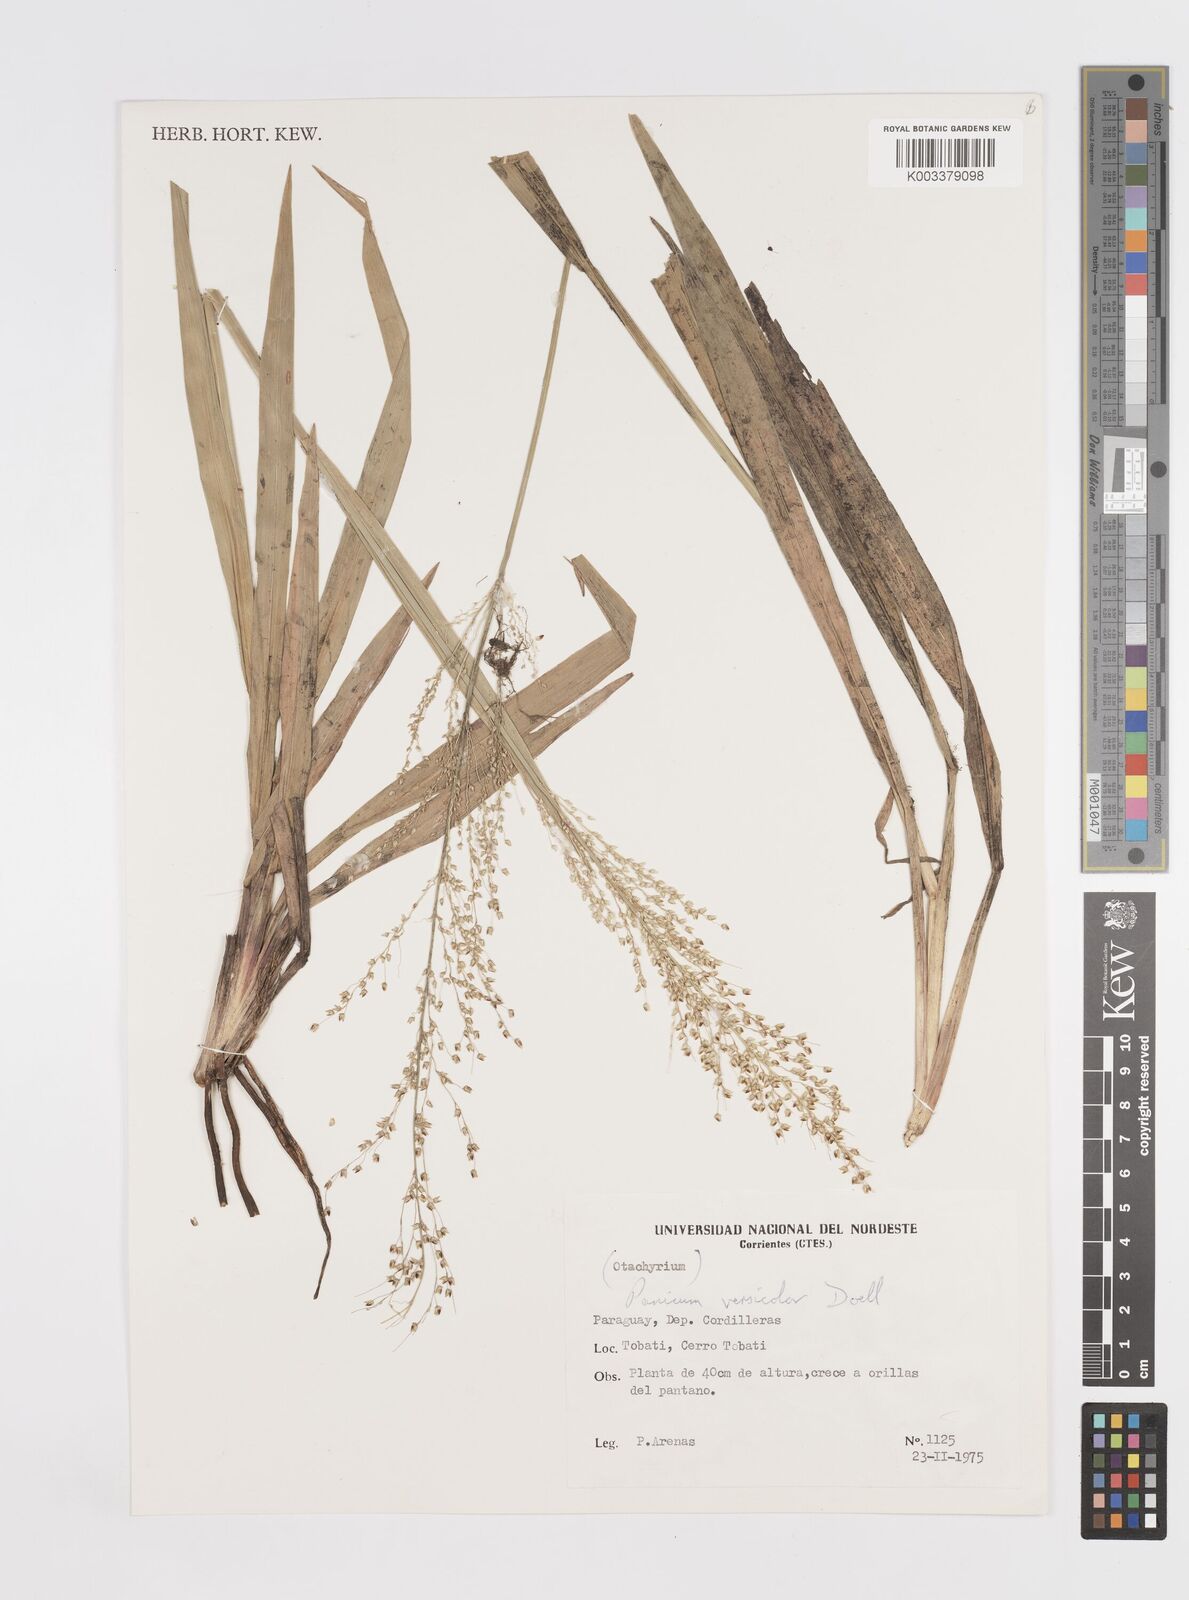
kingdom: Plantae
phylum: Tracheophyta
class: Liliopsida
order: Poales
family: Poaceae
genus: Otachyrium
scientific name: Otachyrium versicolor
